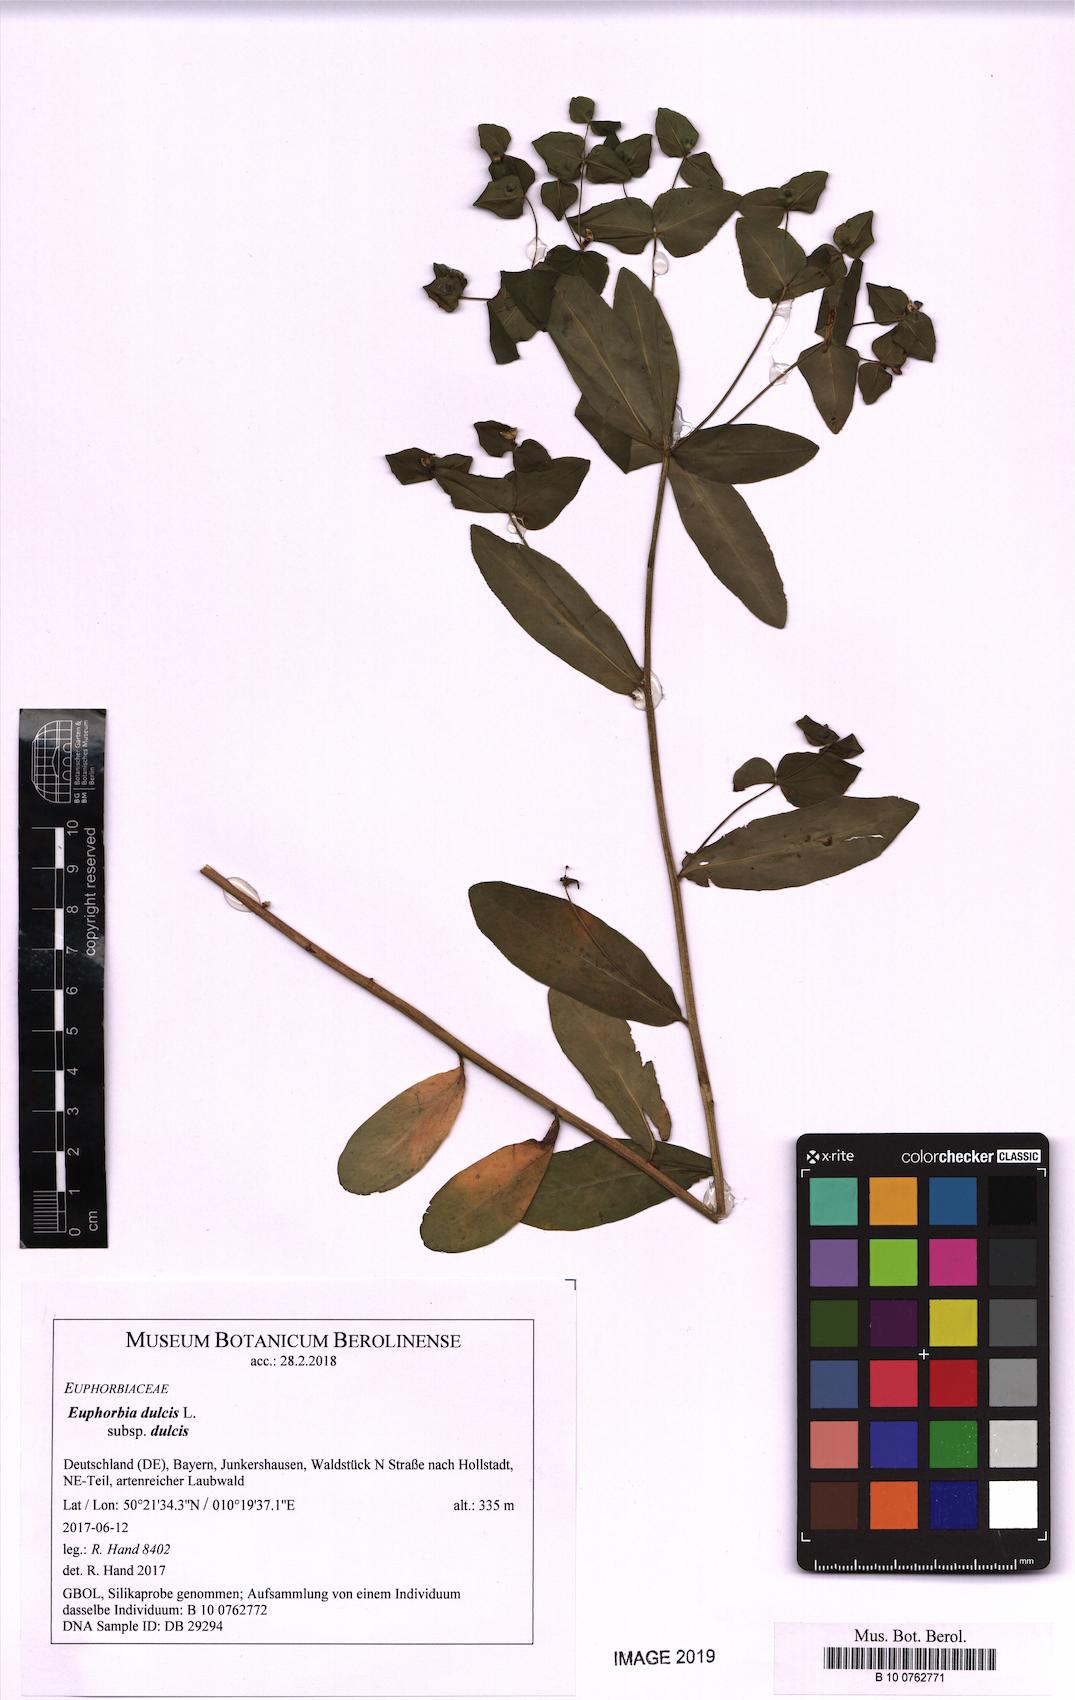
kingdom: Plantae
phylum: Tracheophyta
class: Magnoliopsida
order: Malpighiales
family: Euphorbiaceae
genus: Euphorbia
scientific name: Euphorbia dulcis
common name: Sweet spurge
